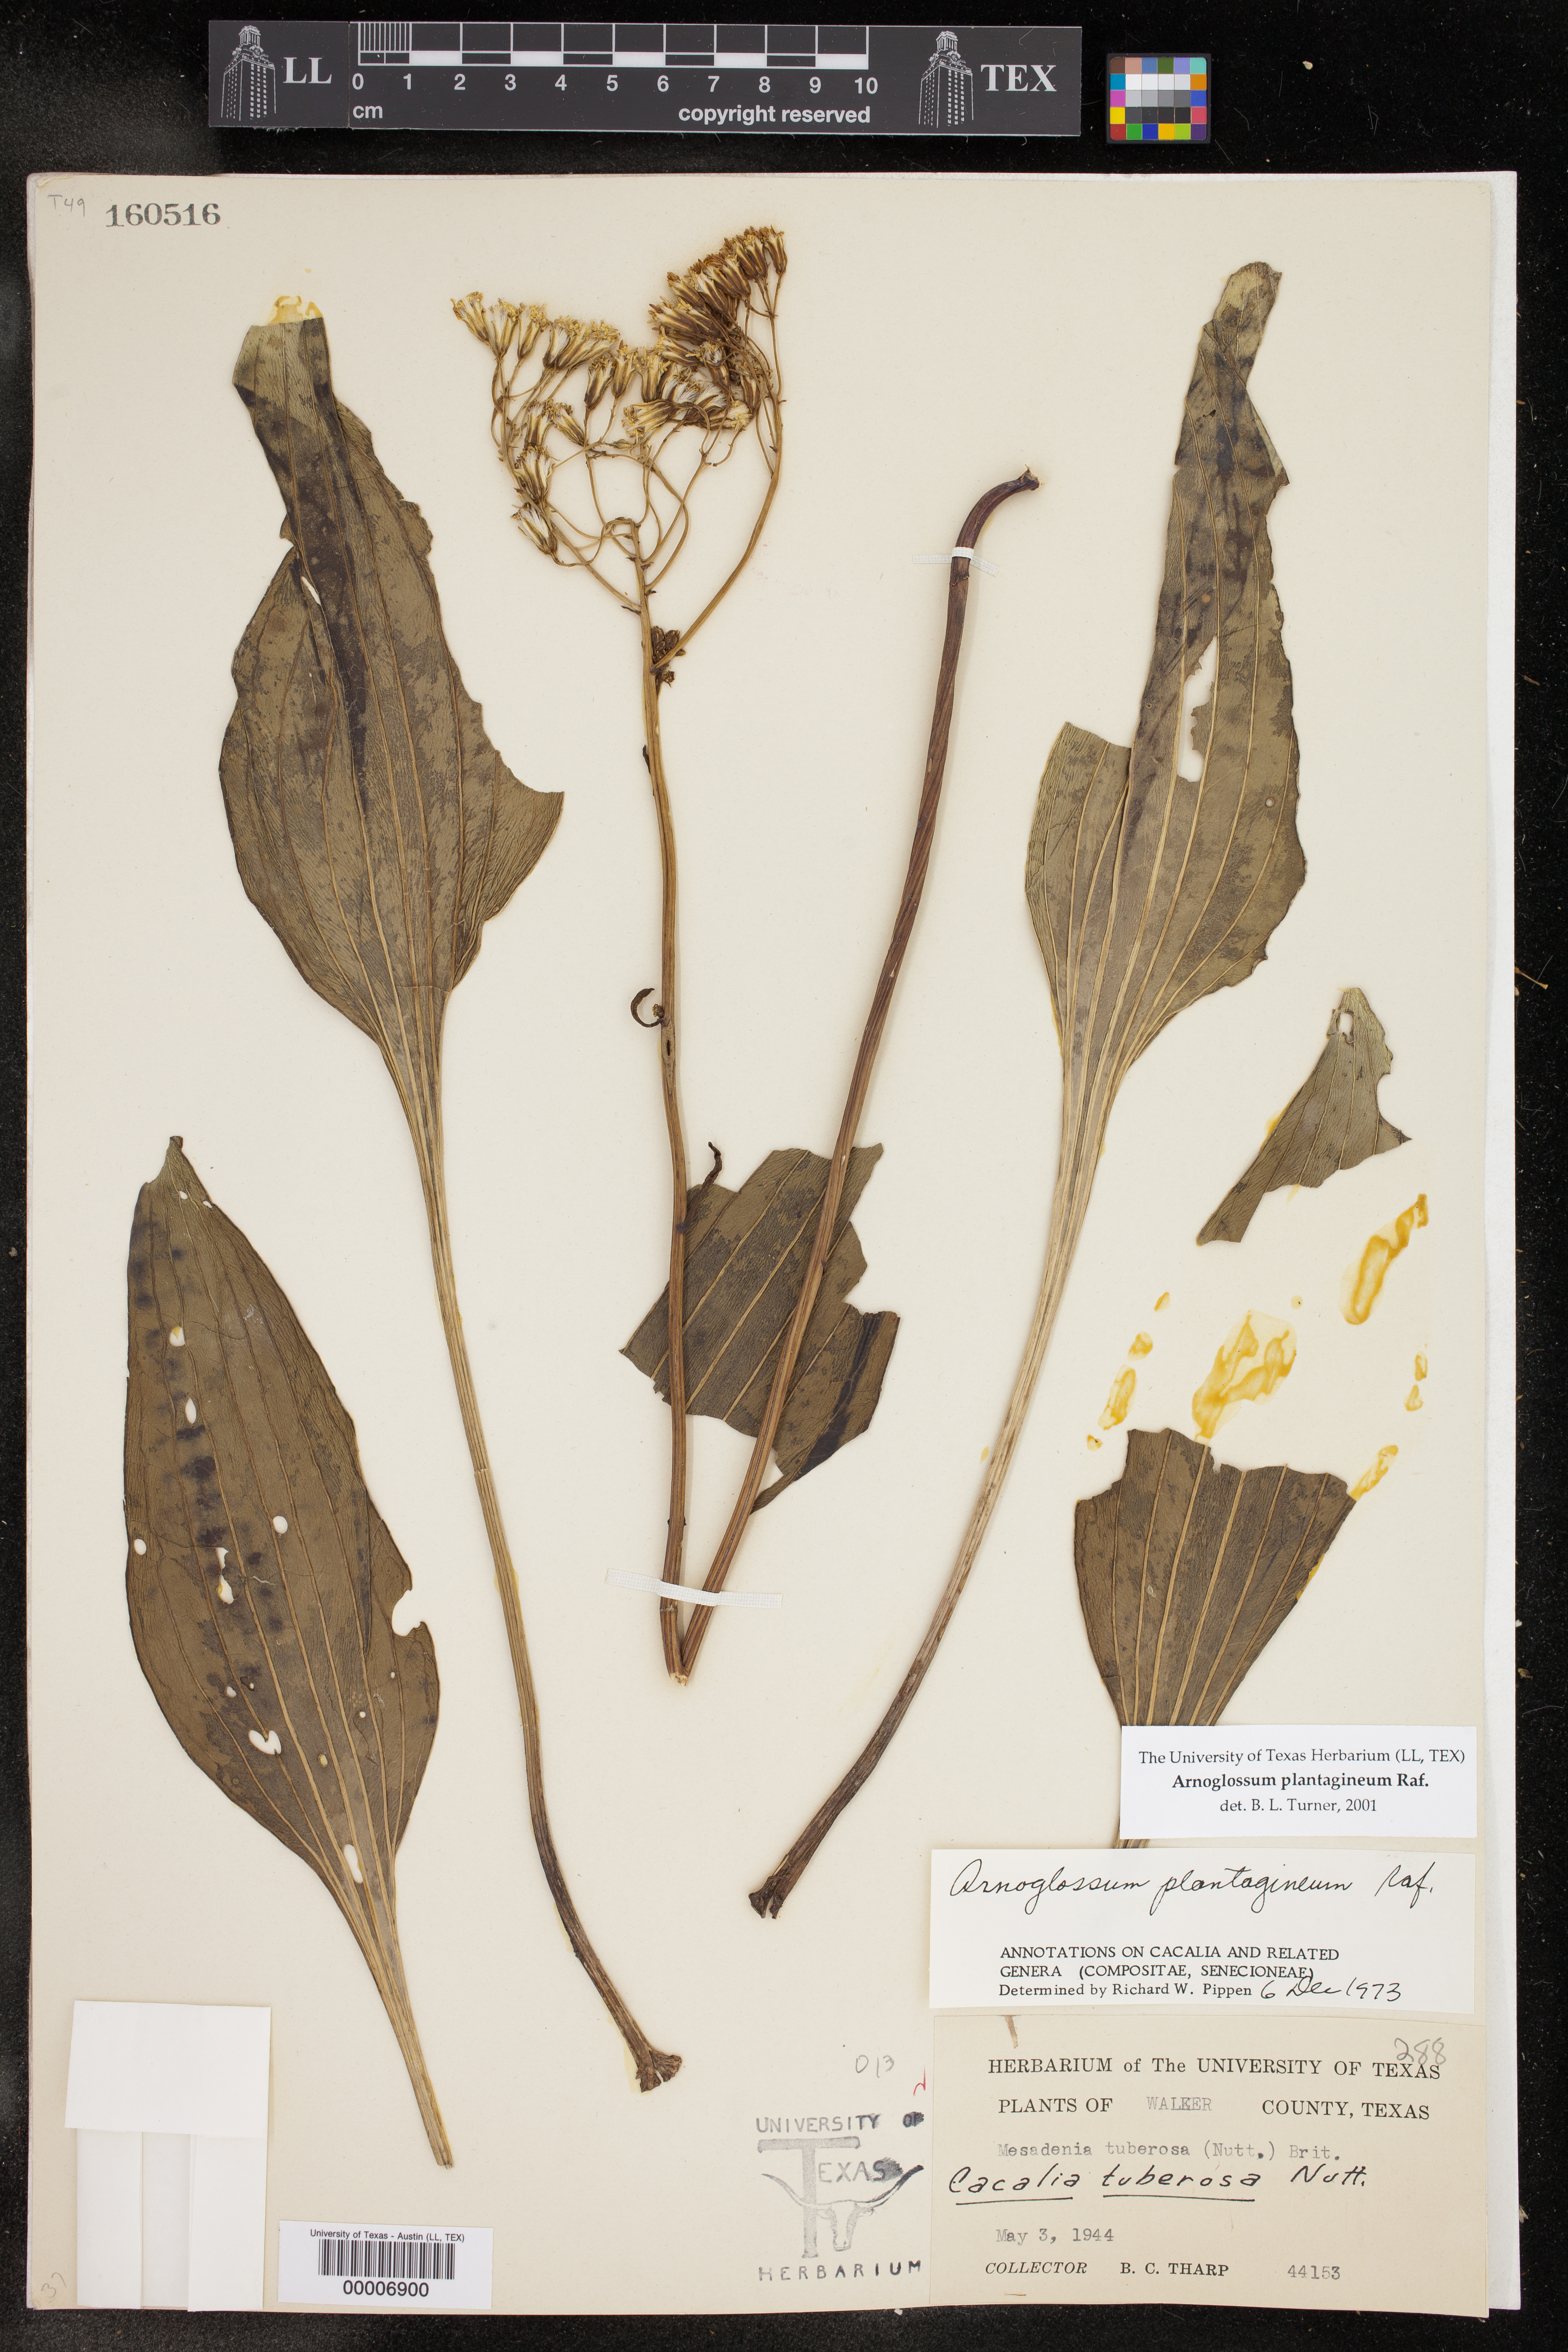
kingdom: Plantae
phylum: Tracheophyta
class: Magnoliopsida
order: Asterales
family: Asteraceae
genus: Arnoglossum
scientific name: Arnoglossum plantagineum
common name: Groove-stemmed indian-plantain
